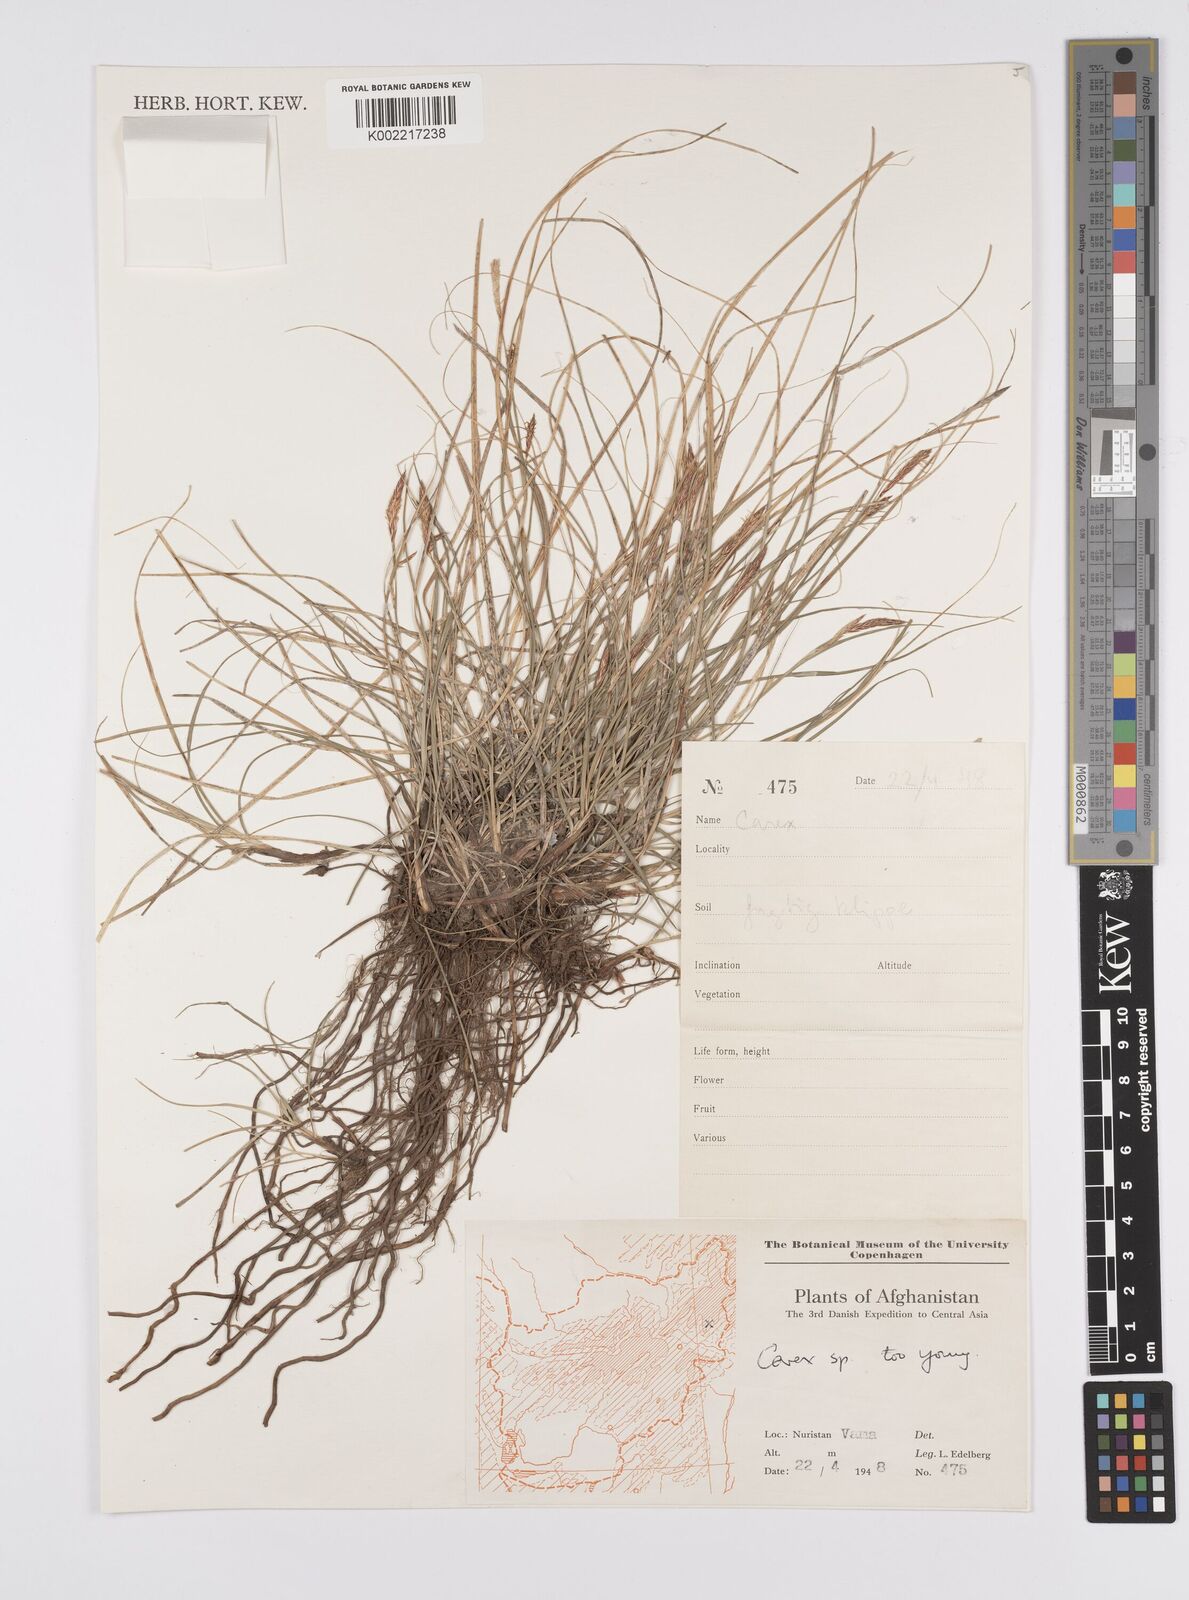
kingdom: Plantae
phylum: Tracheophyta
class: Liliopsida
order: Poales
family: Cyperaceae
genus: Carex
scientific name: Carex
